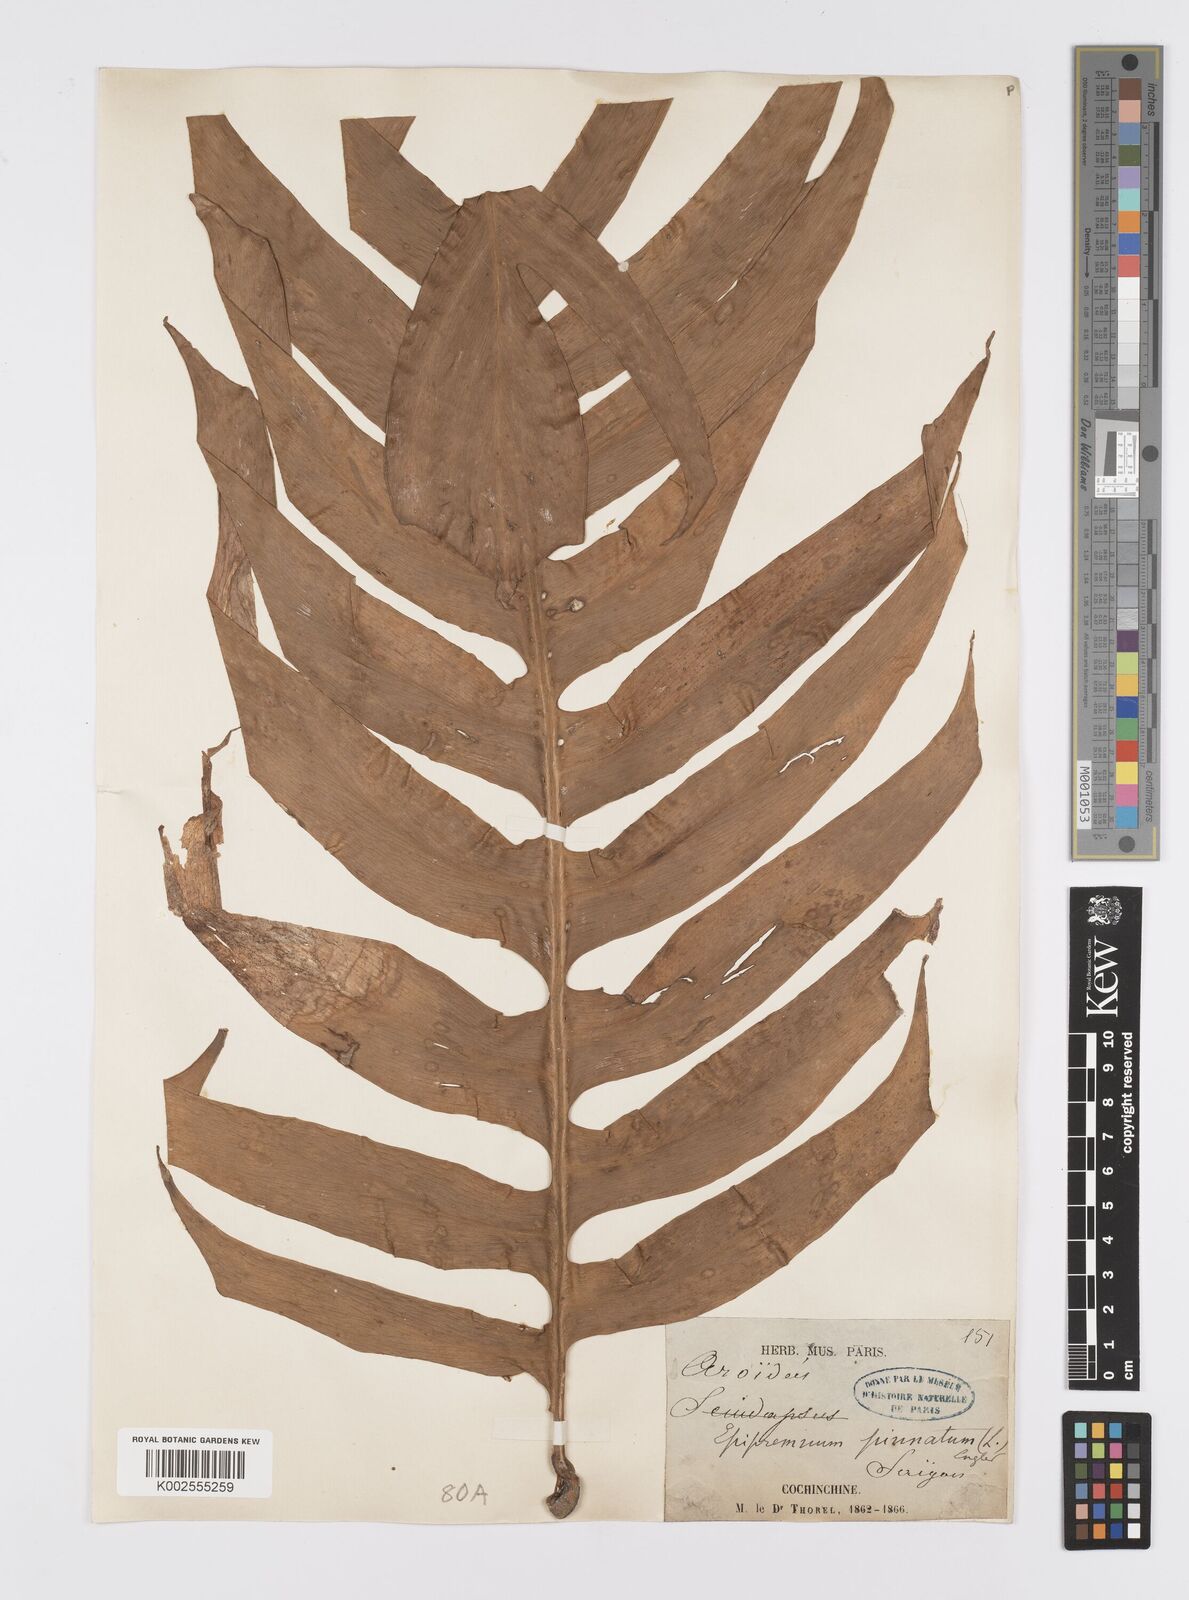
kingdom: Plantae
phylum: Tracheophyta
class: Liliopsida
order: Alismatales
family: Araceae
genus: Epipremnum
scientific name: Epipremnum pinnatum
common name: Centipede tongavine
